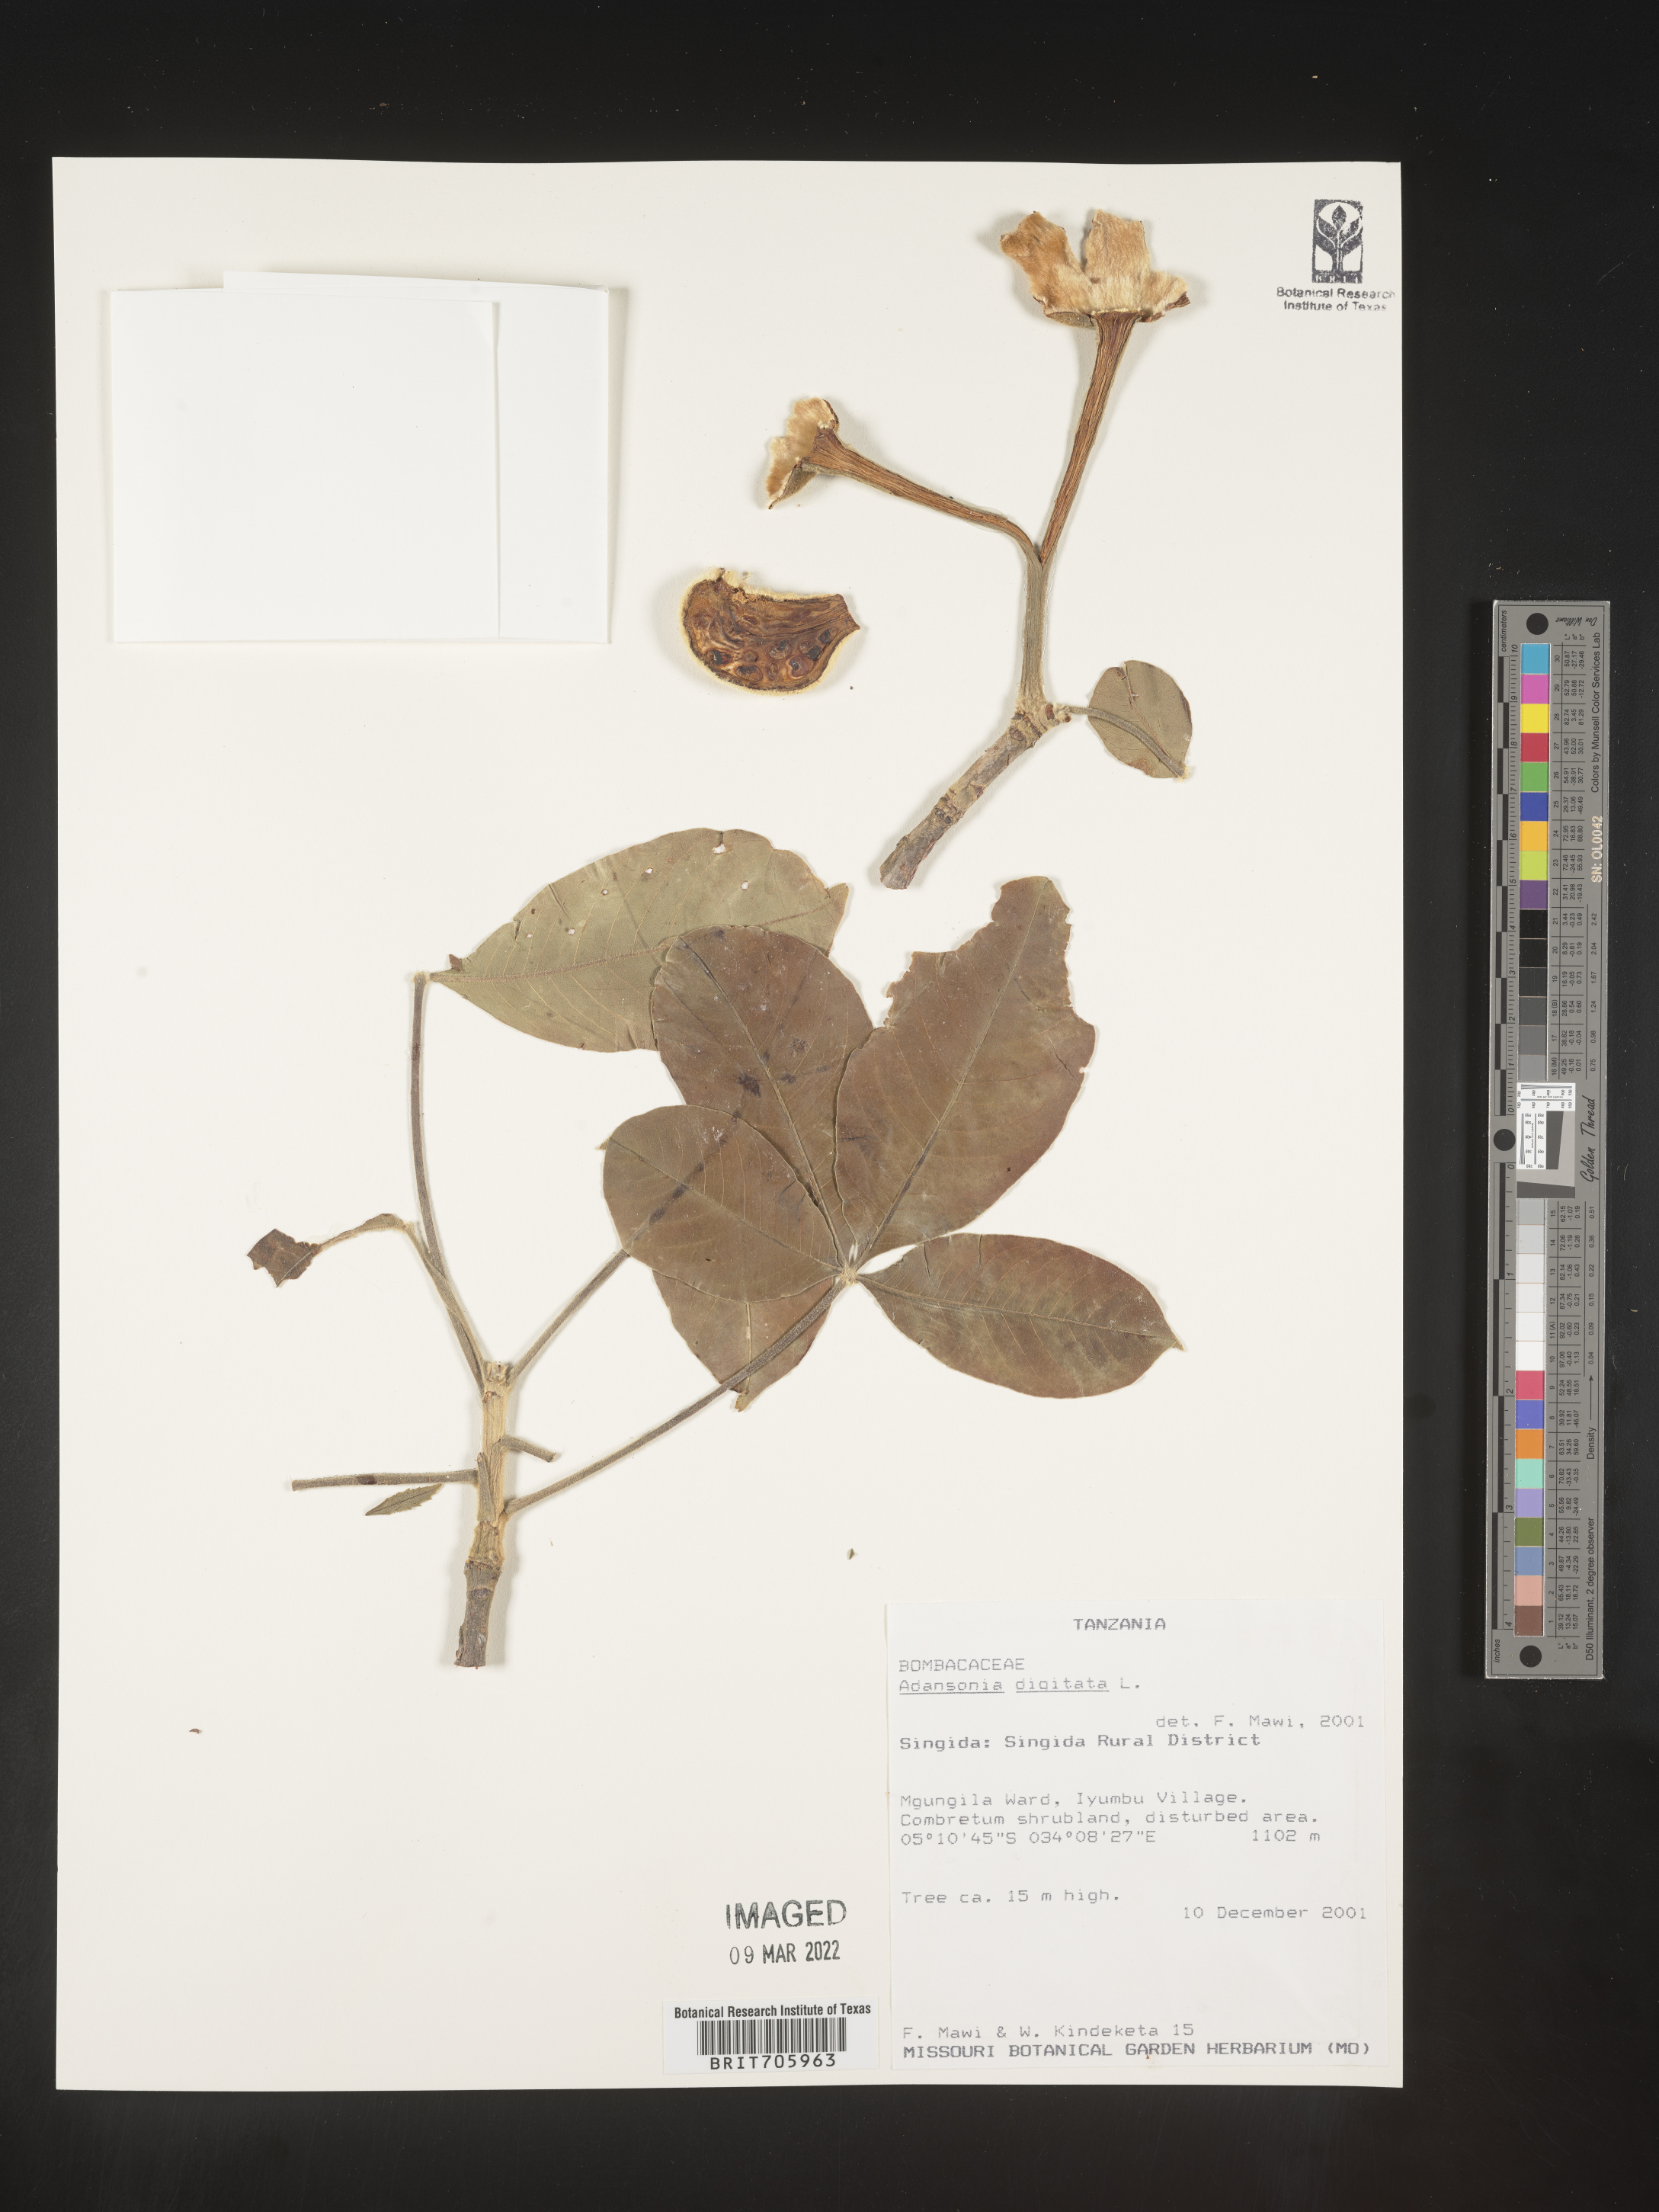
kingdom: Plantae
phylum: Tracheophyta
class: Magnoliopsida
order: Malvales
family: Malvaceae
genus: Adansonia
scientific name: Adansonia
